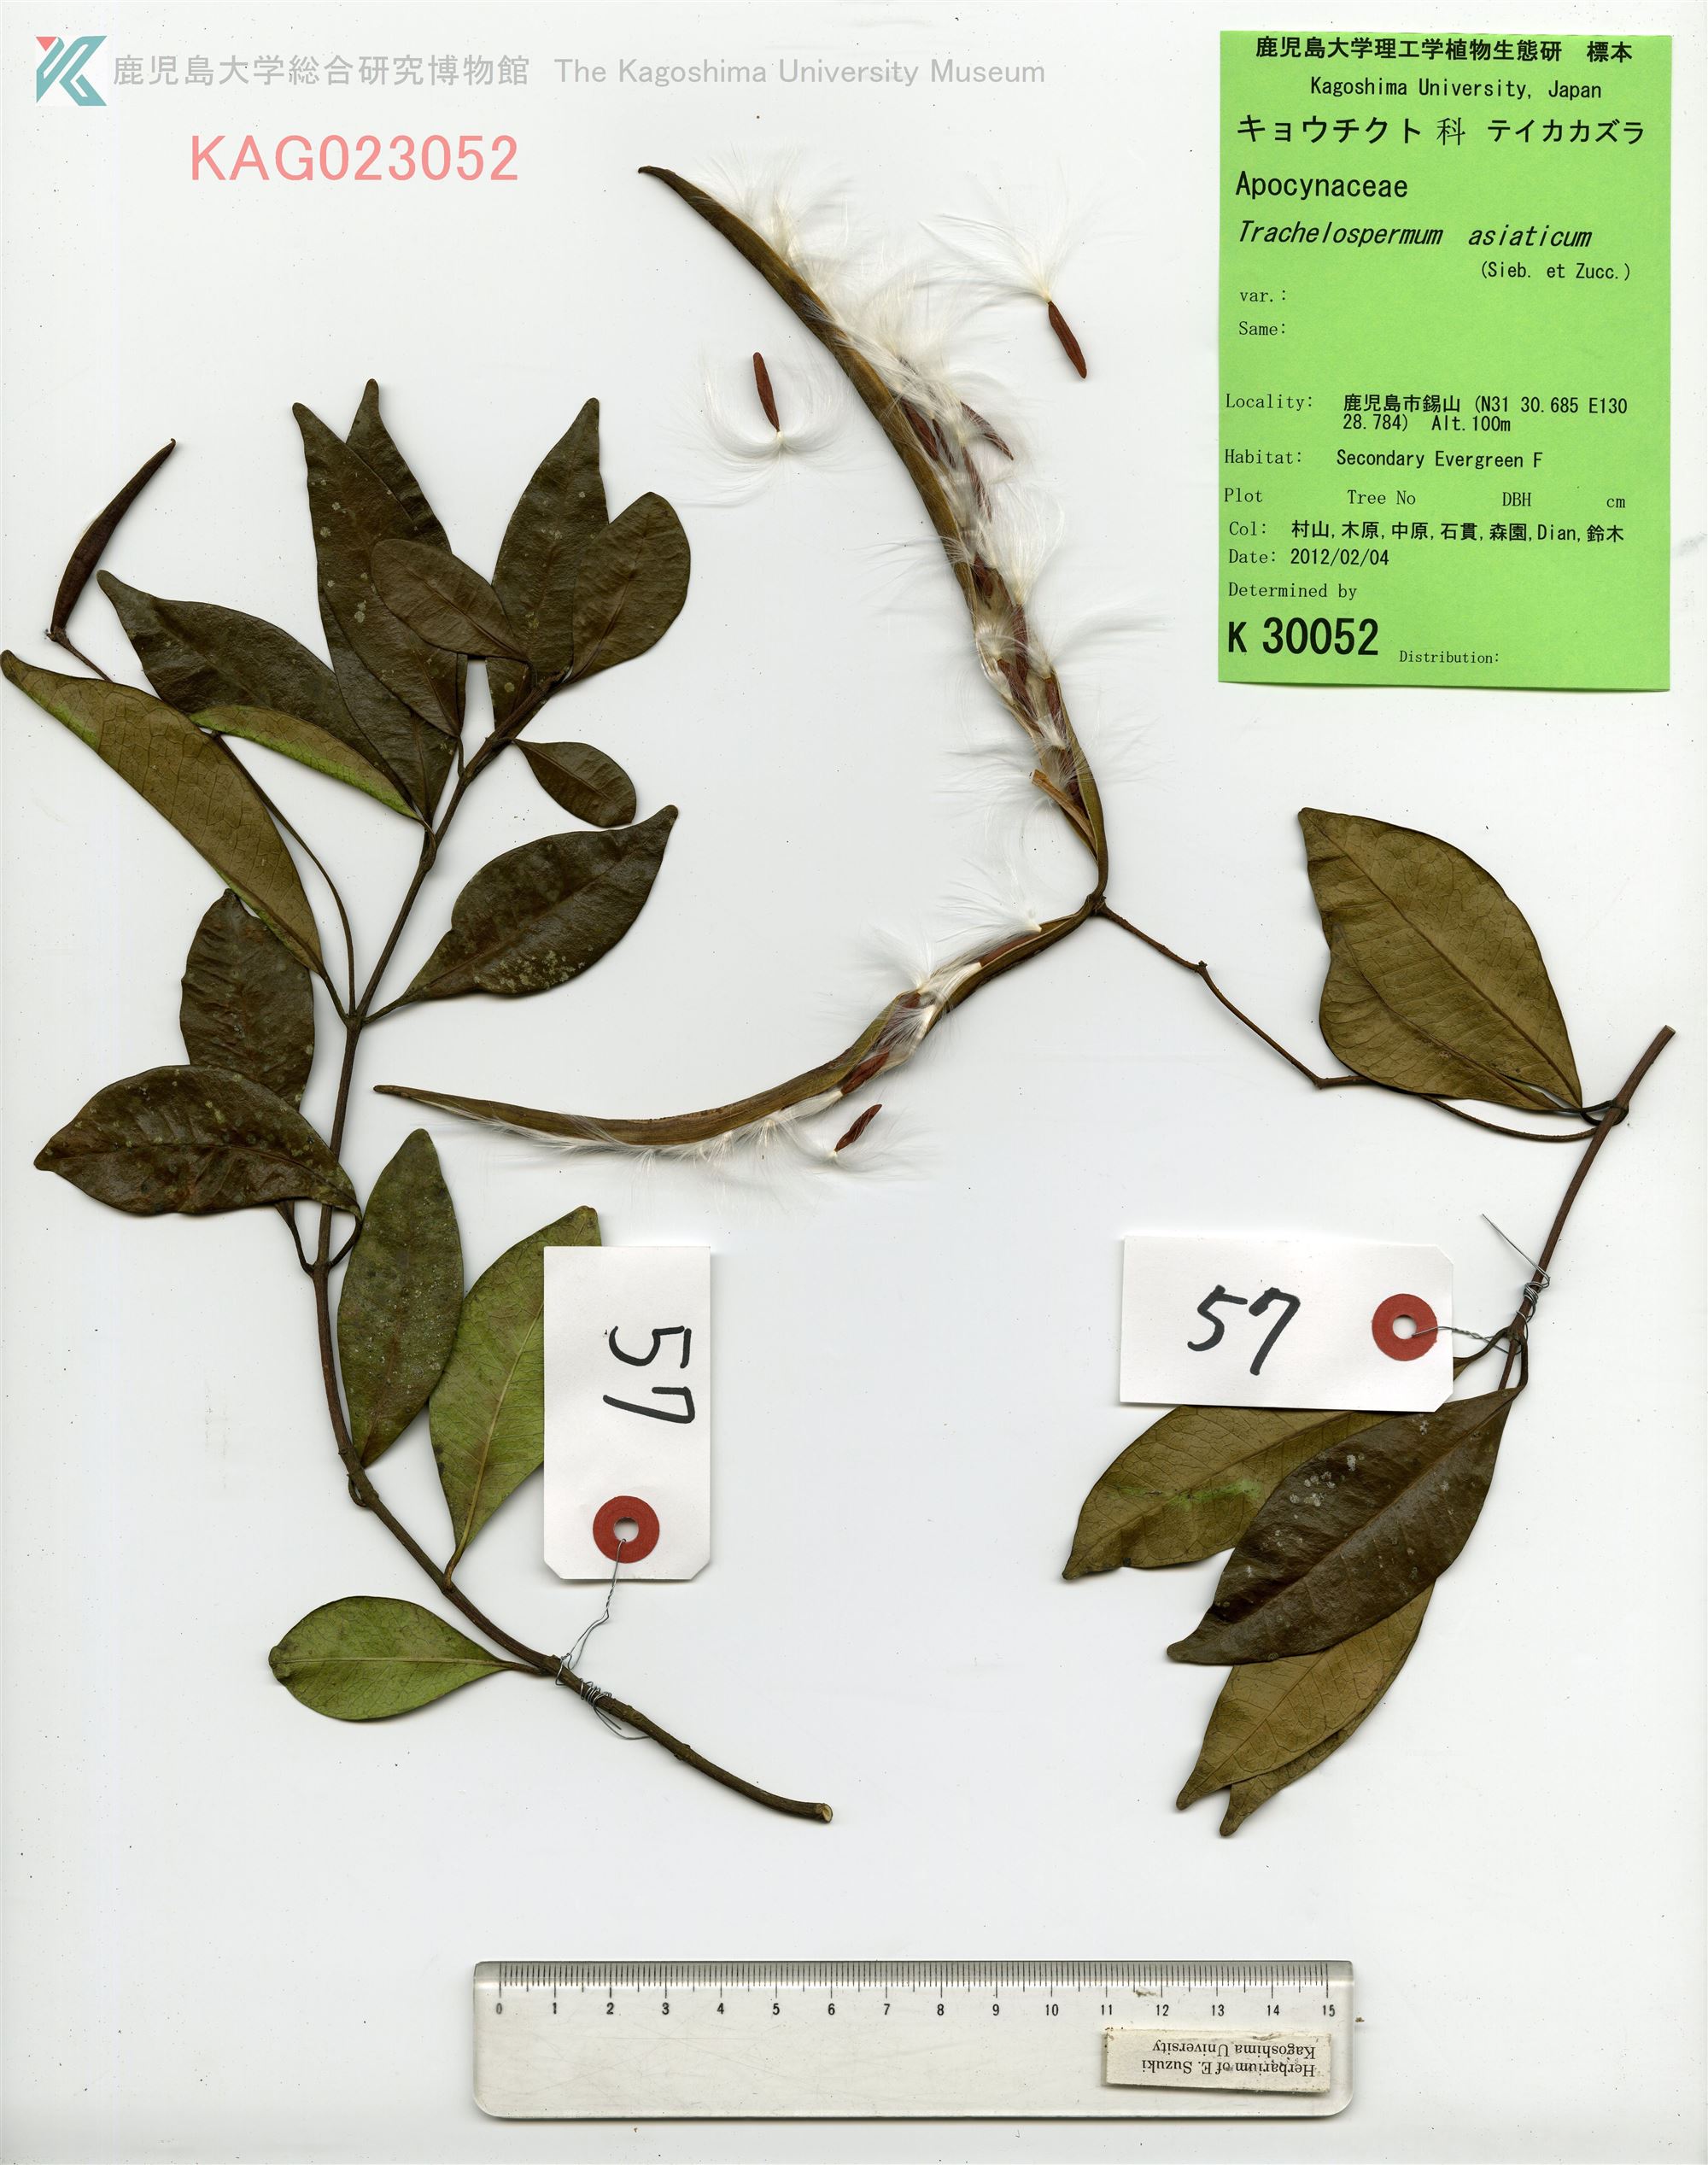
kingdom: Plantae
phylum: Tracheophyta
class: Magnoliopsida
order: Gentianales
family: Apocynaceae
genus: Trachelospermum
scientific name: Trachelospermum asiaticum
